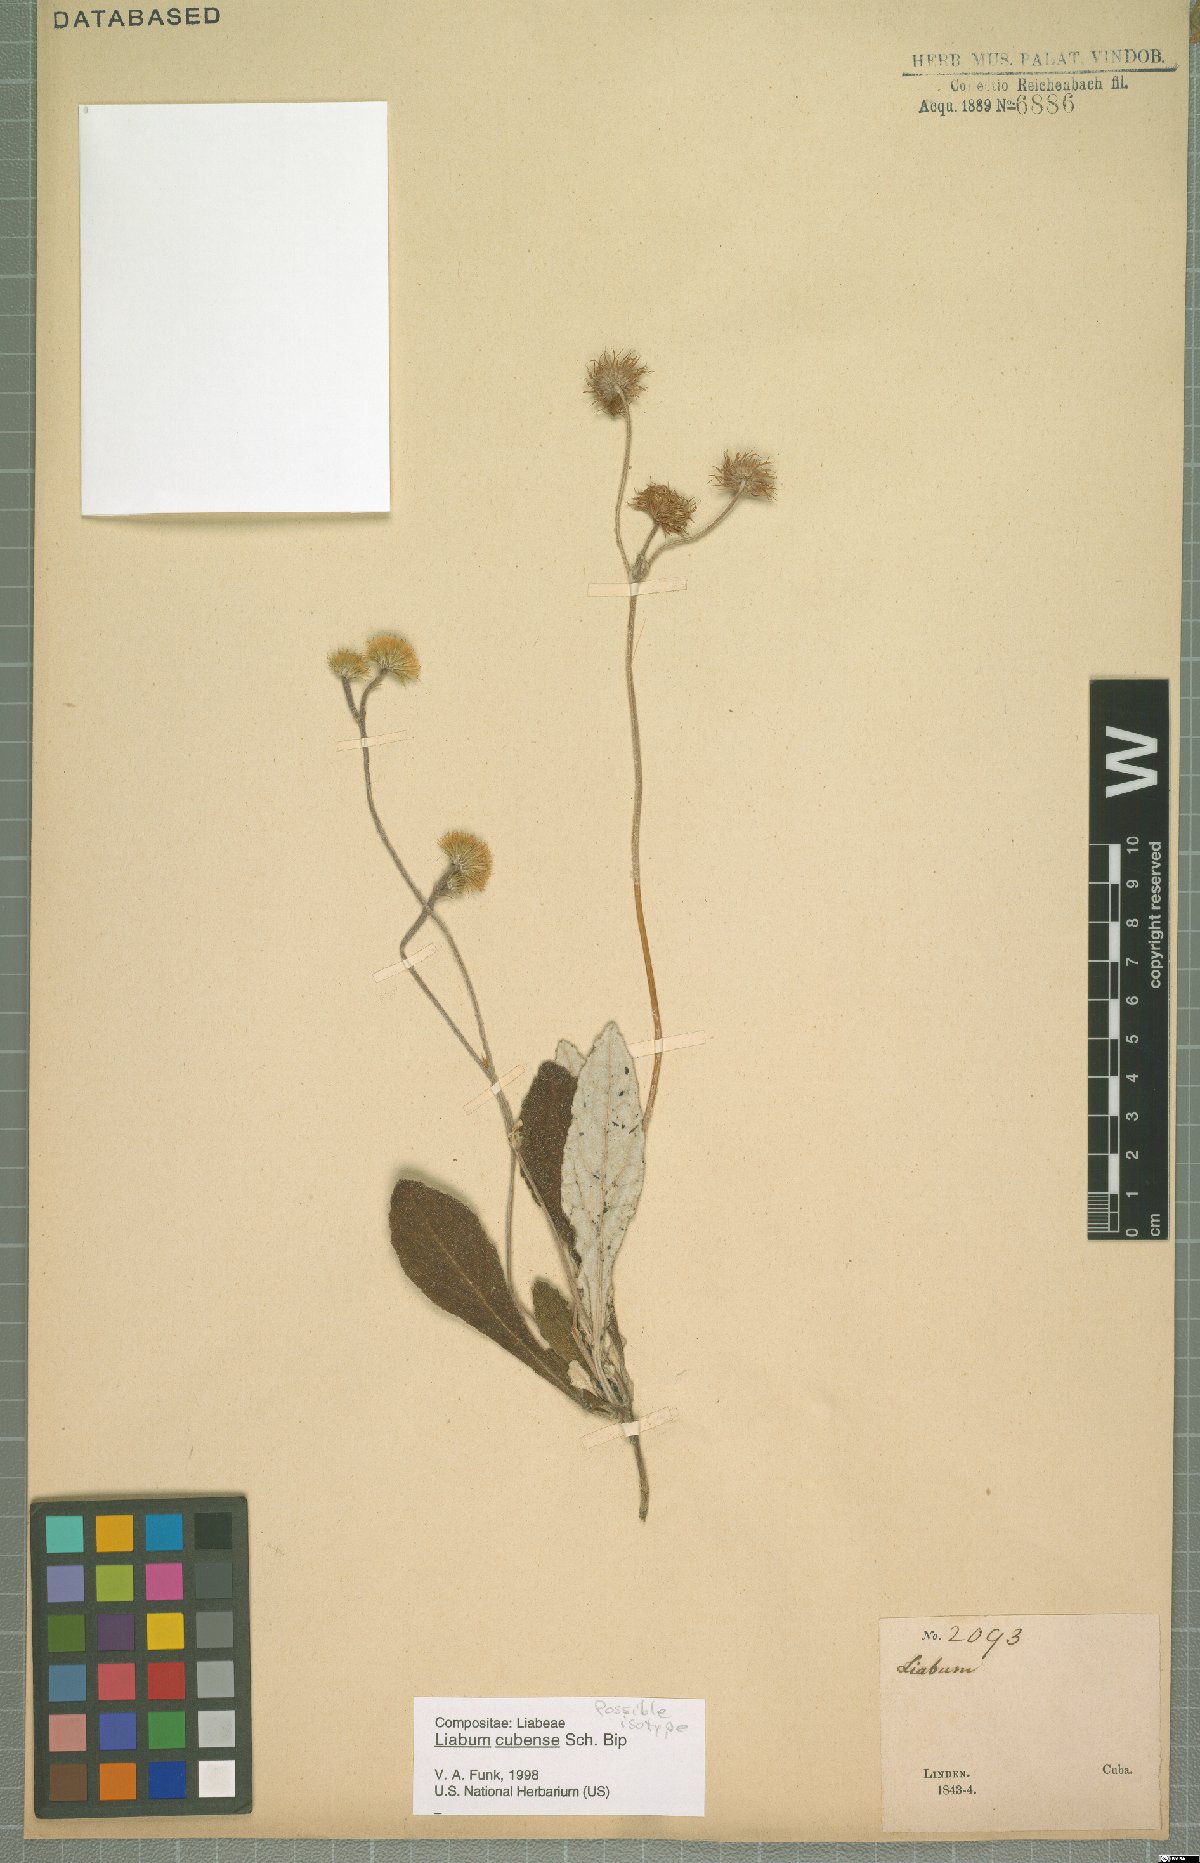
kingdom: Plantae
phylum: Tracheophyta
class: Magnoliopsida
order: Asterales
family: Asteraceae
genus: Liabum
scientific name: Liabum cubense
